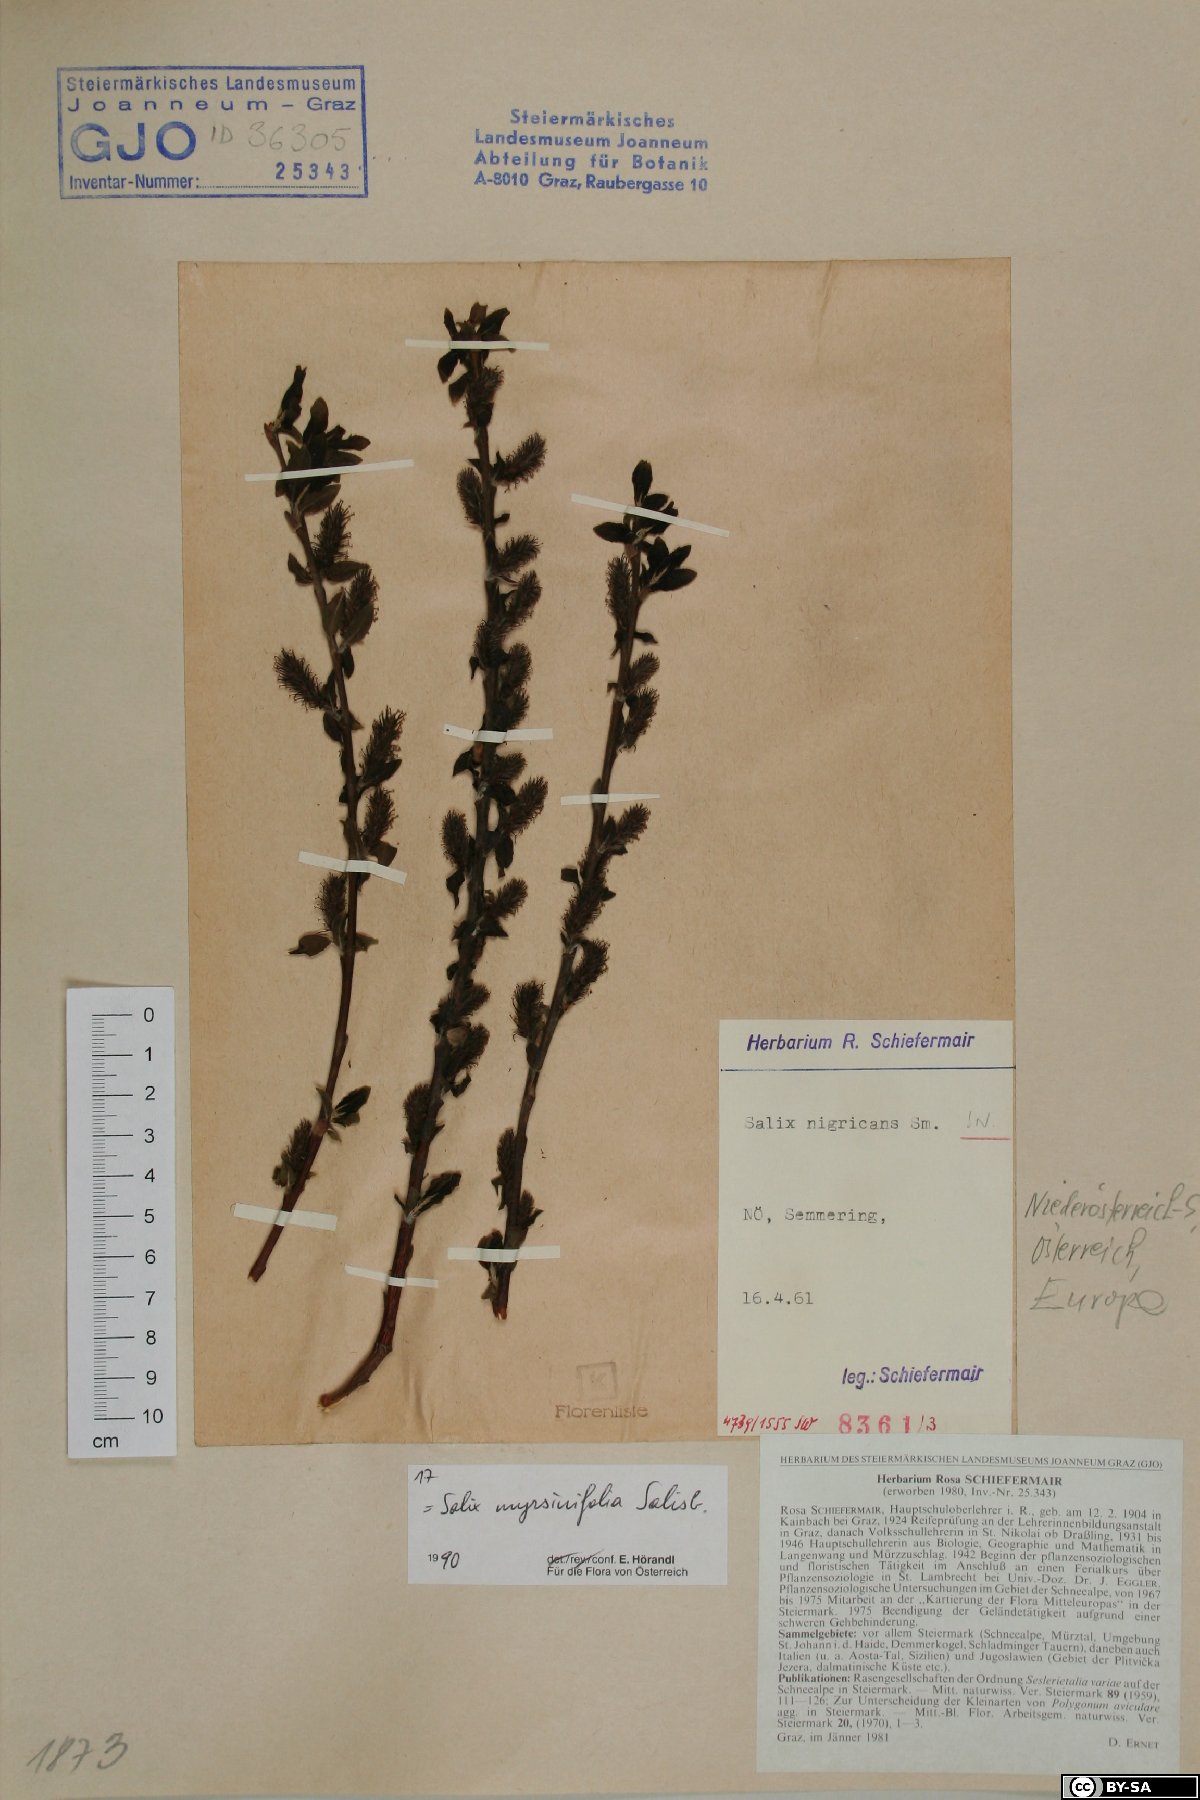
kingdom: Plantae
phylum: Tracheophyta
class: Magnoliopsida
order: Malpighiales
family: Salicaceae
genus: Salix
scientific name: Salix myrsinifolia
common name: Dark-leaved willow
